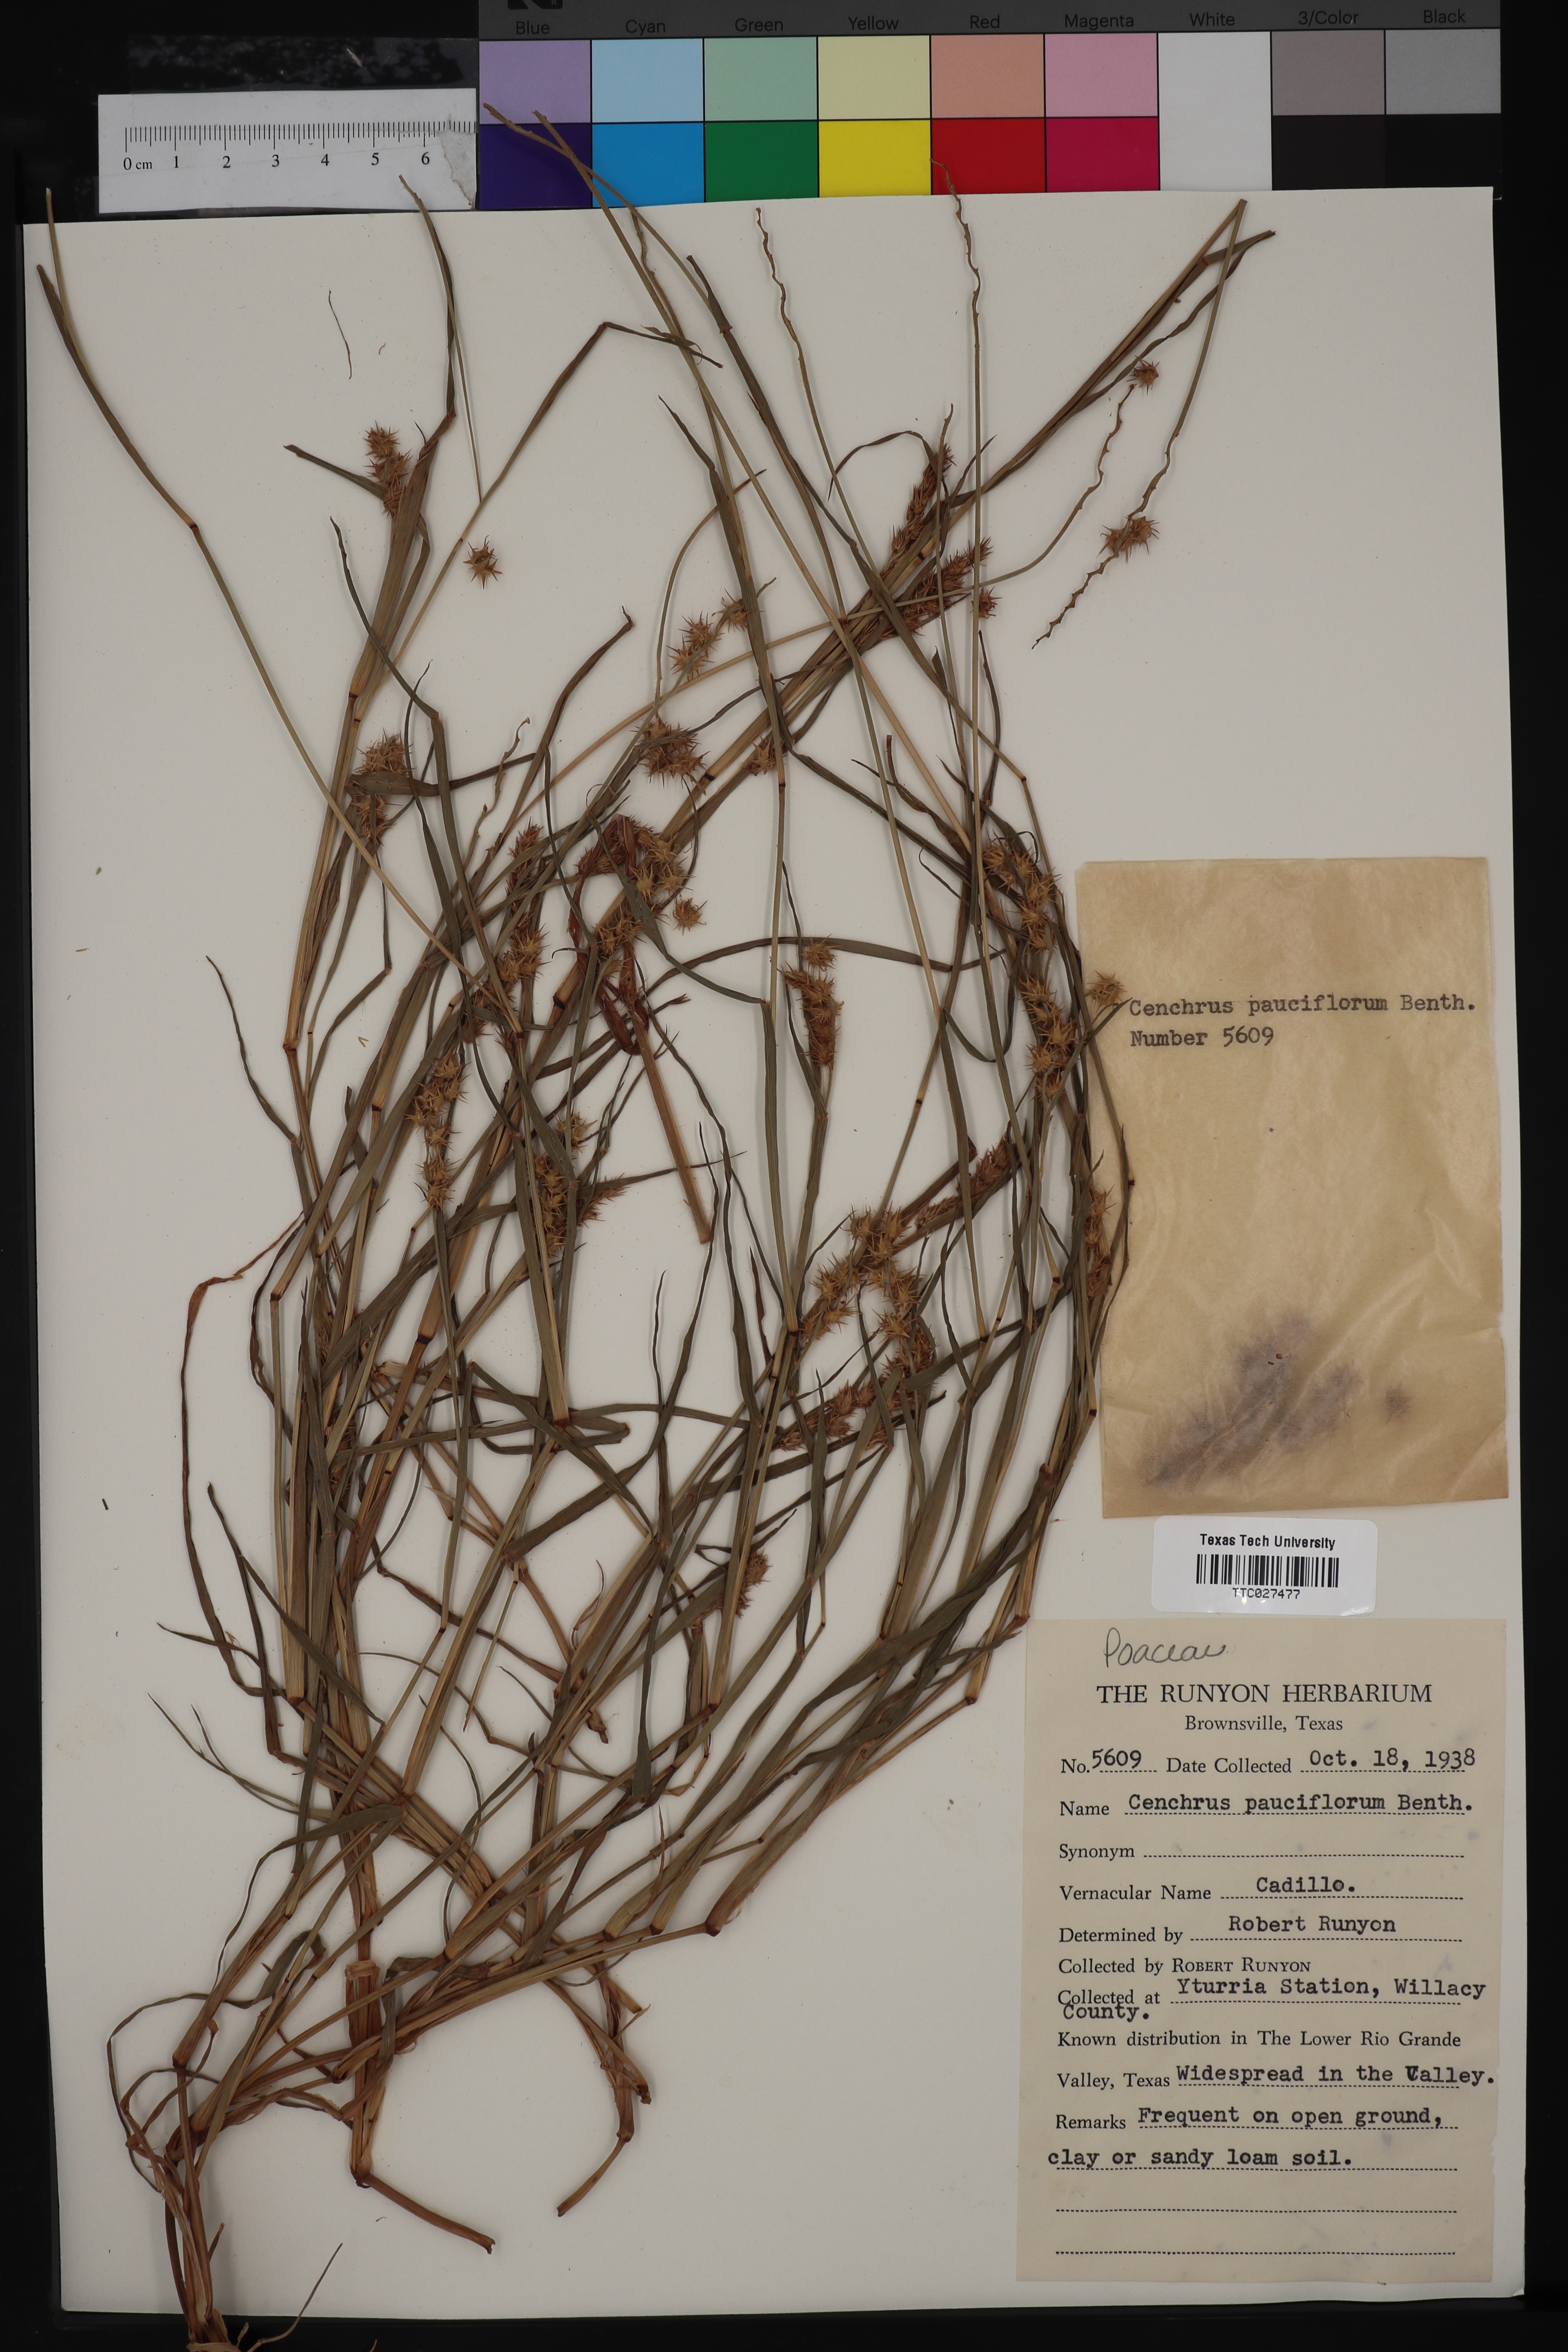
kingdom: Plantae
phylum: Tracheophyta
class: Liliopsida
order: Poales
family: Poaceae
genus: Cenchrus
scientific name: Cenchrus spinifex
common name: Coast sandbur
